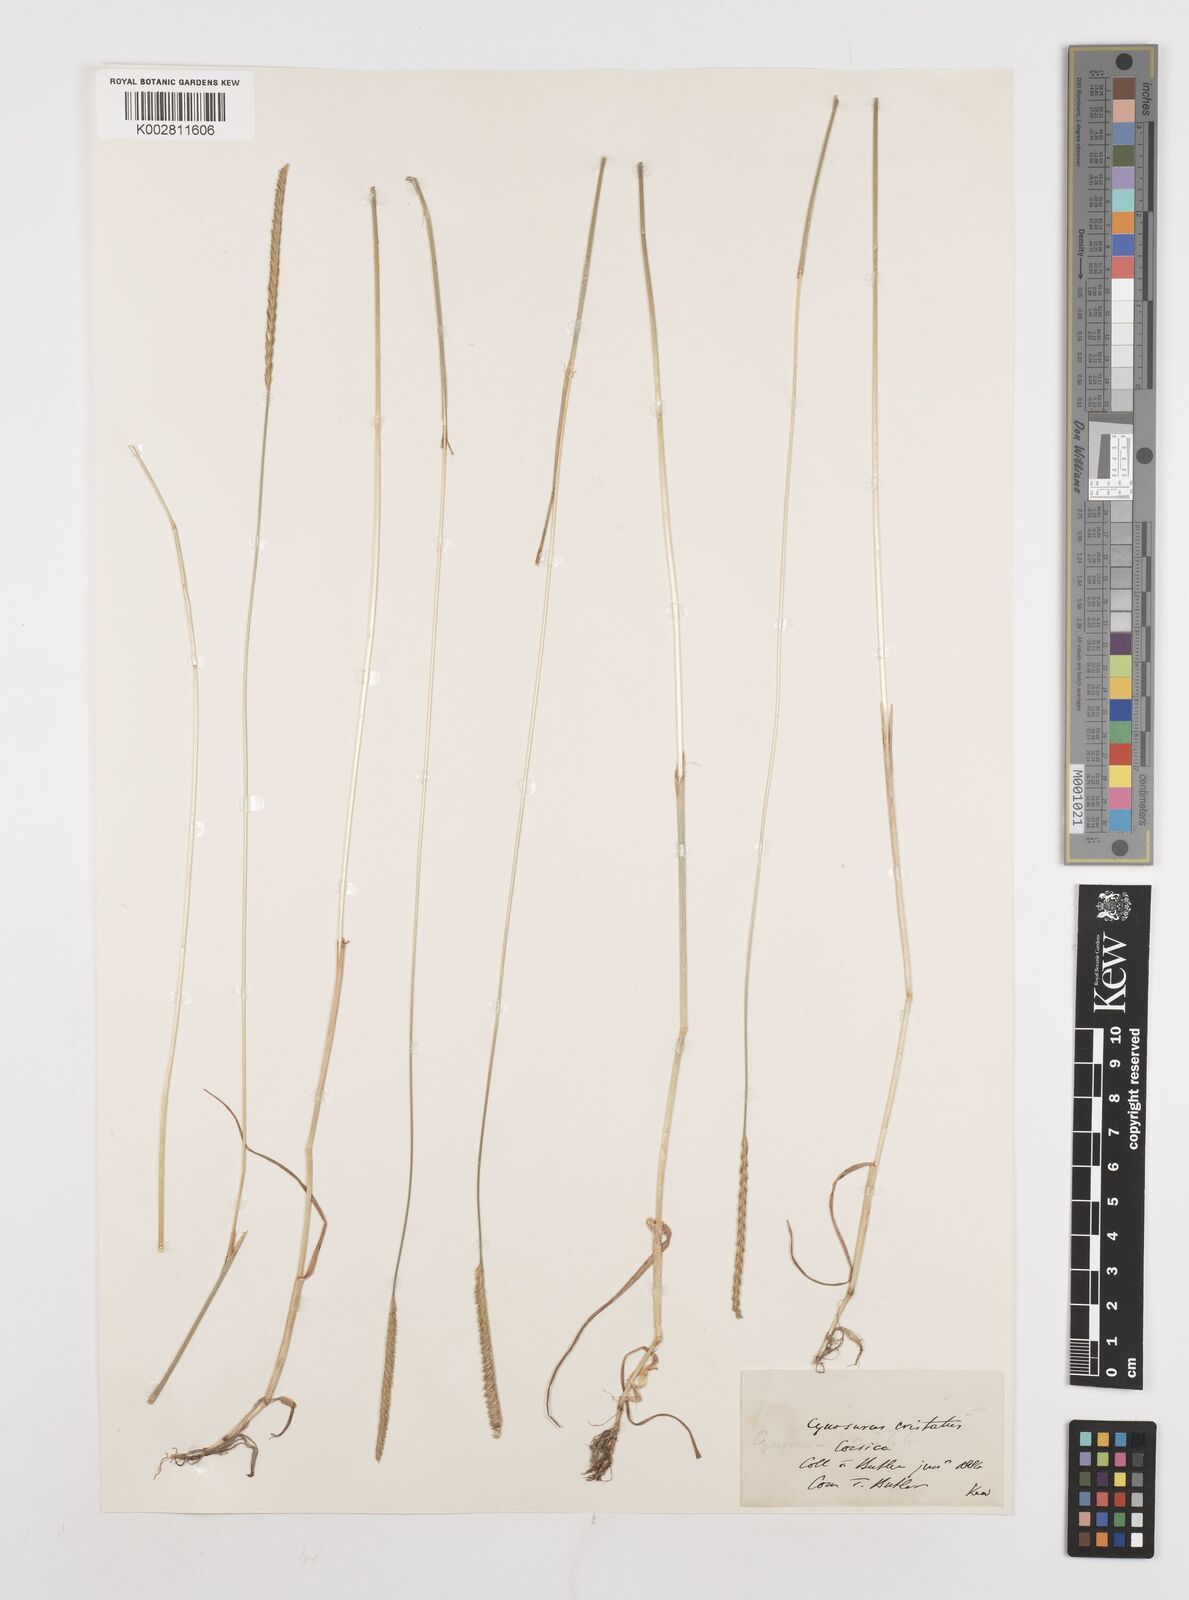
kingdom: Plantae
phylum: Tracheophyta
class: Liliopsida
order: Poales
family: Poaceae
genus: Cynosurus
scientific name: Cynosurus cristatus
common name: Crested dog's-tail
